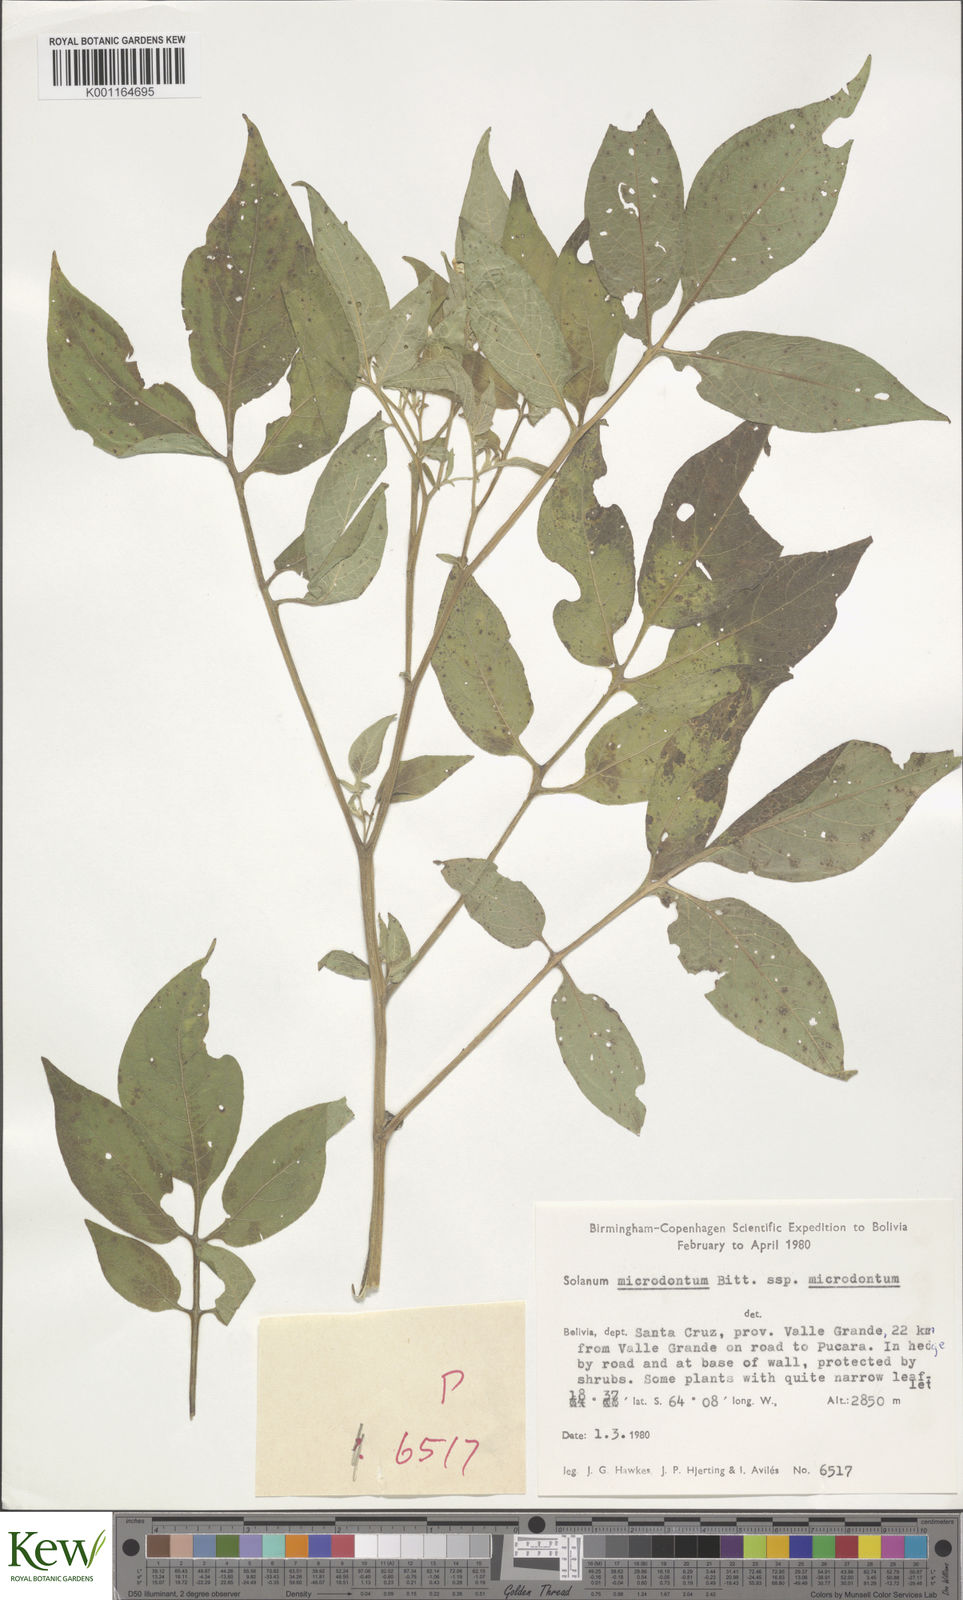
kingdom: Plantae
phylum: Tracheophyta
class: Magnoliopsida
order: Solanales
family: Solanaceae
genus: Solanum
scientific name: Solanum microdontum
